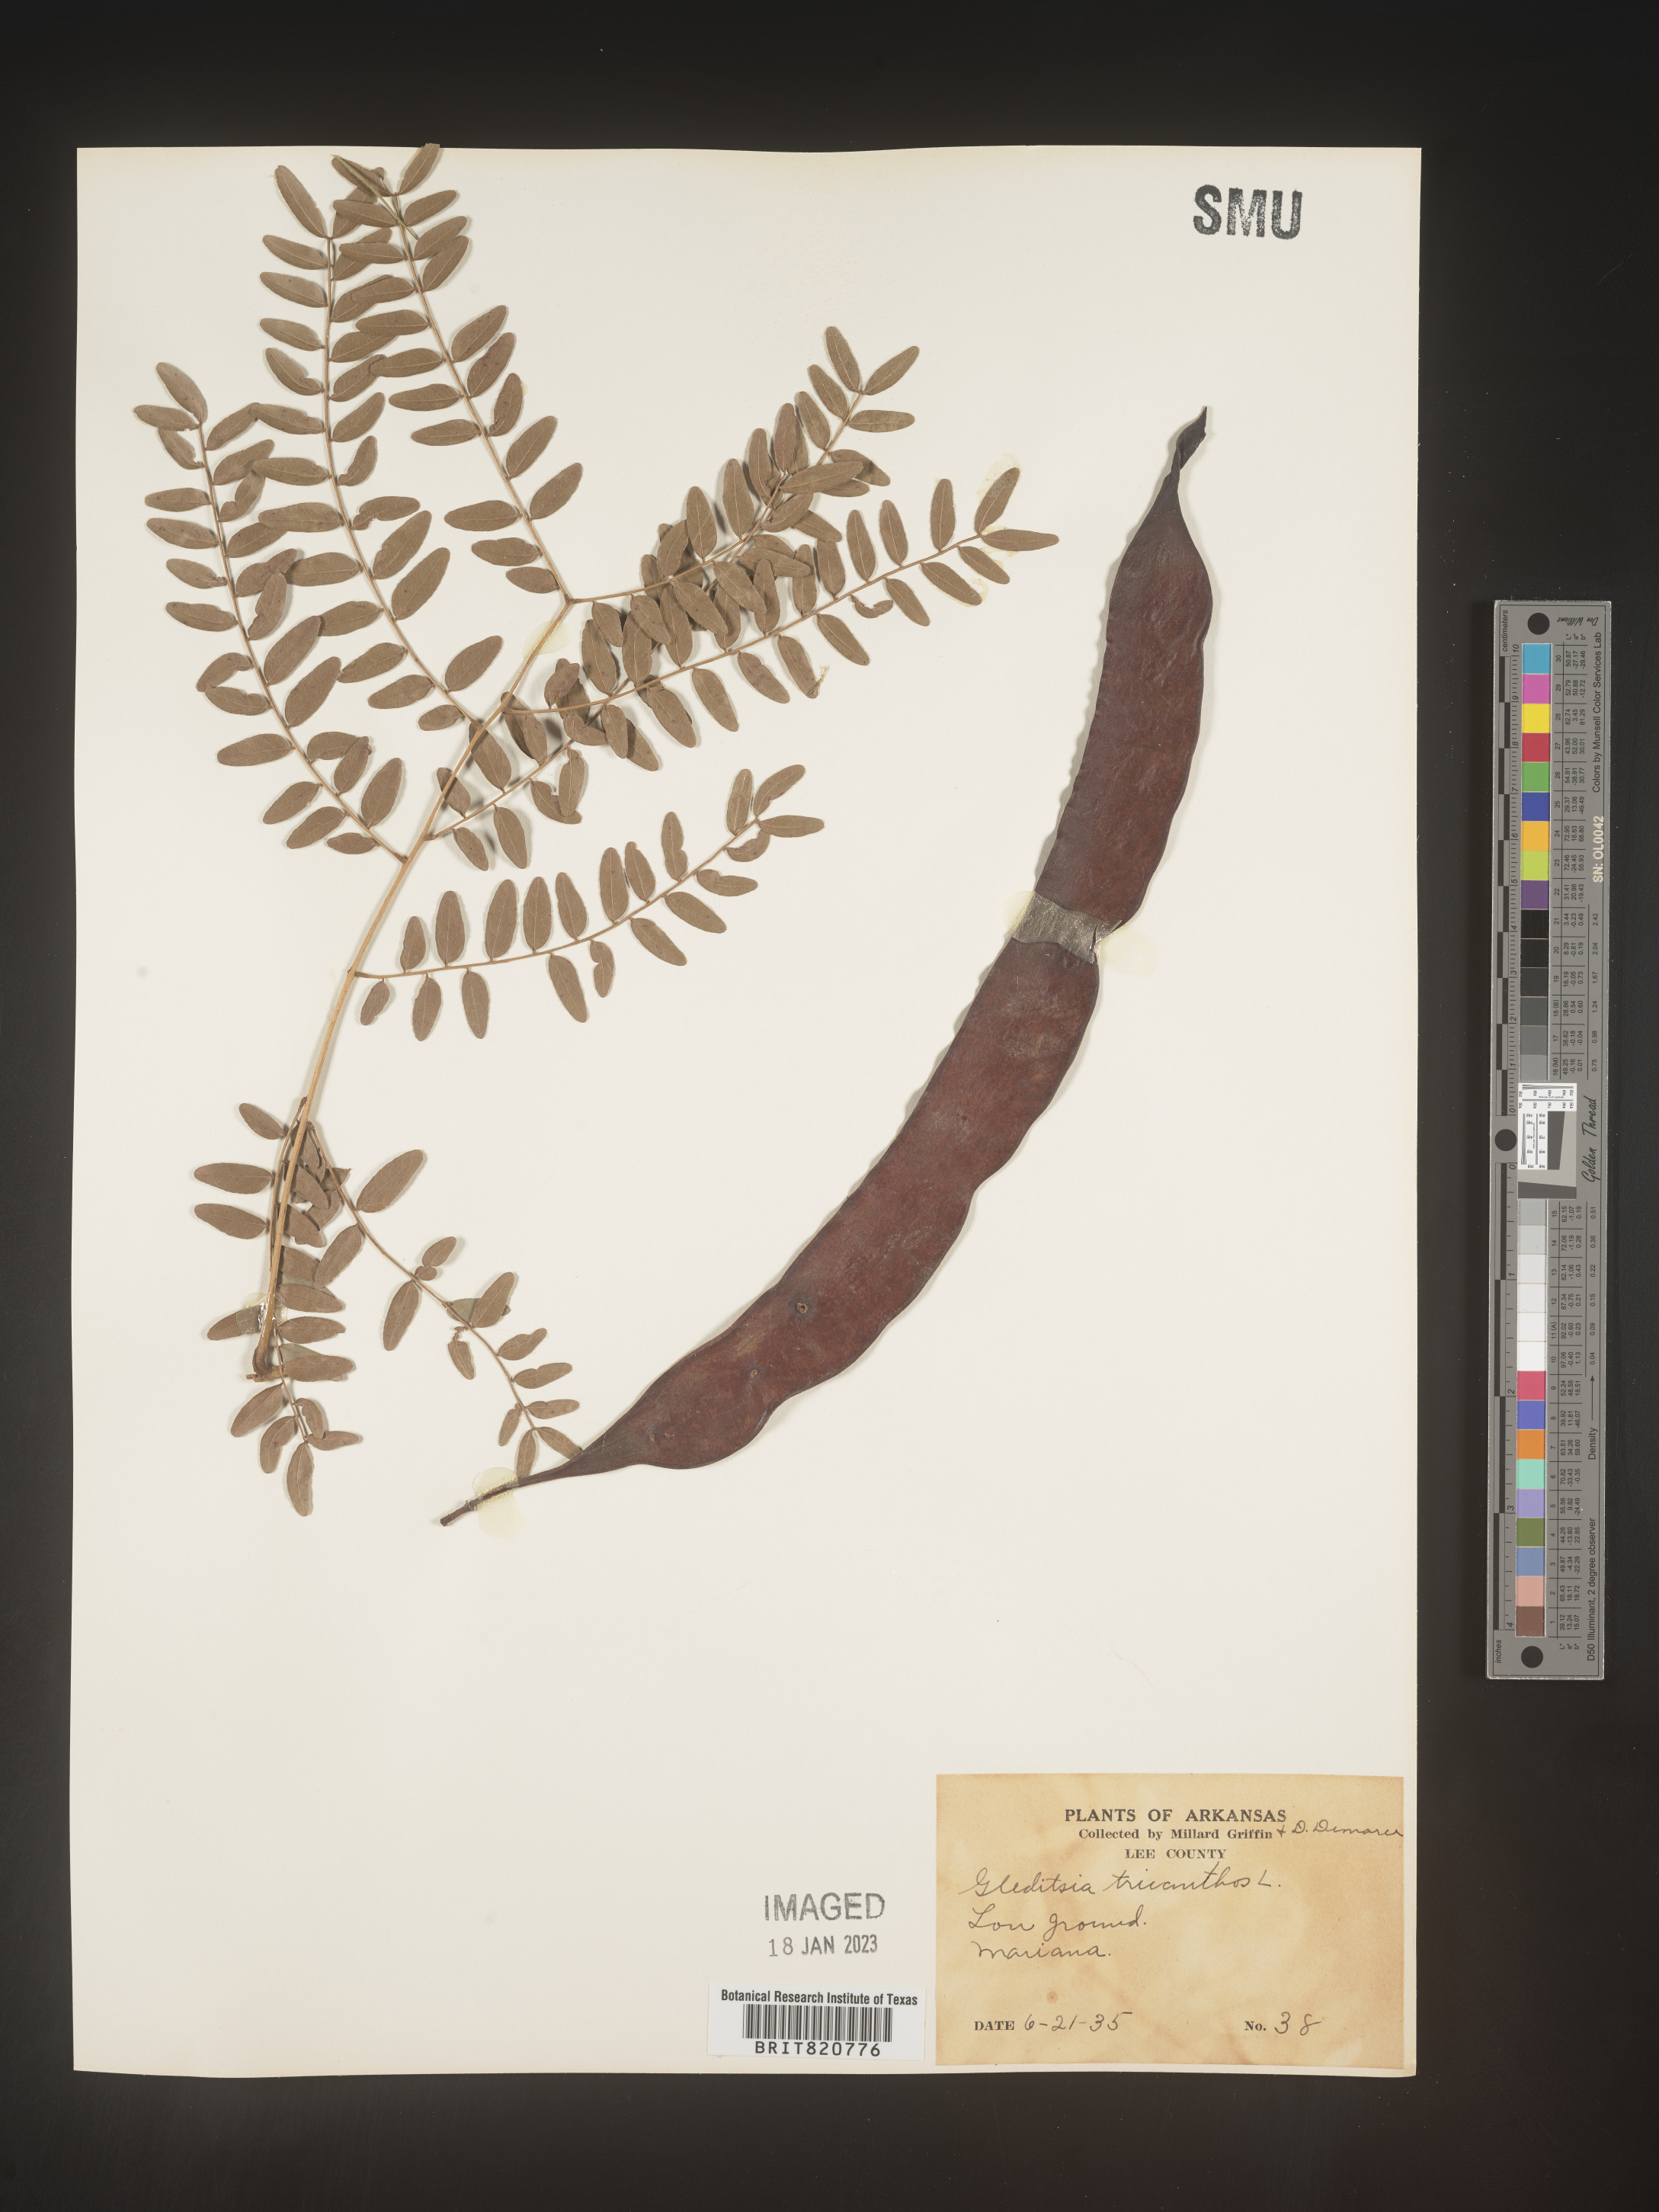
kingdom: Plantae
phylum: Tracheophyta
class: Magnoliopsida
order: Fabales
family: Fabaceae
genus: Gleditsia
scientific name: Gleditsia triacanthos
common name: Common honeylocust
